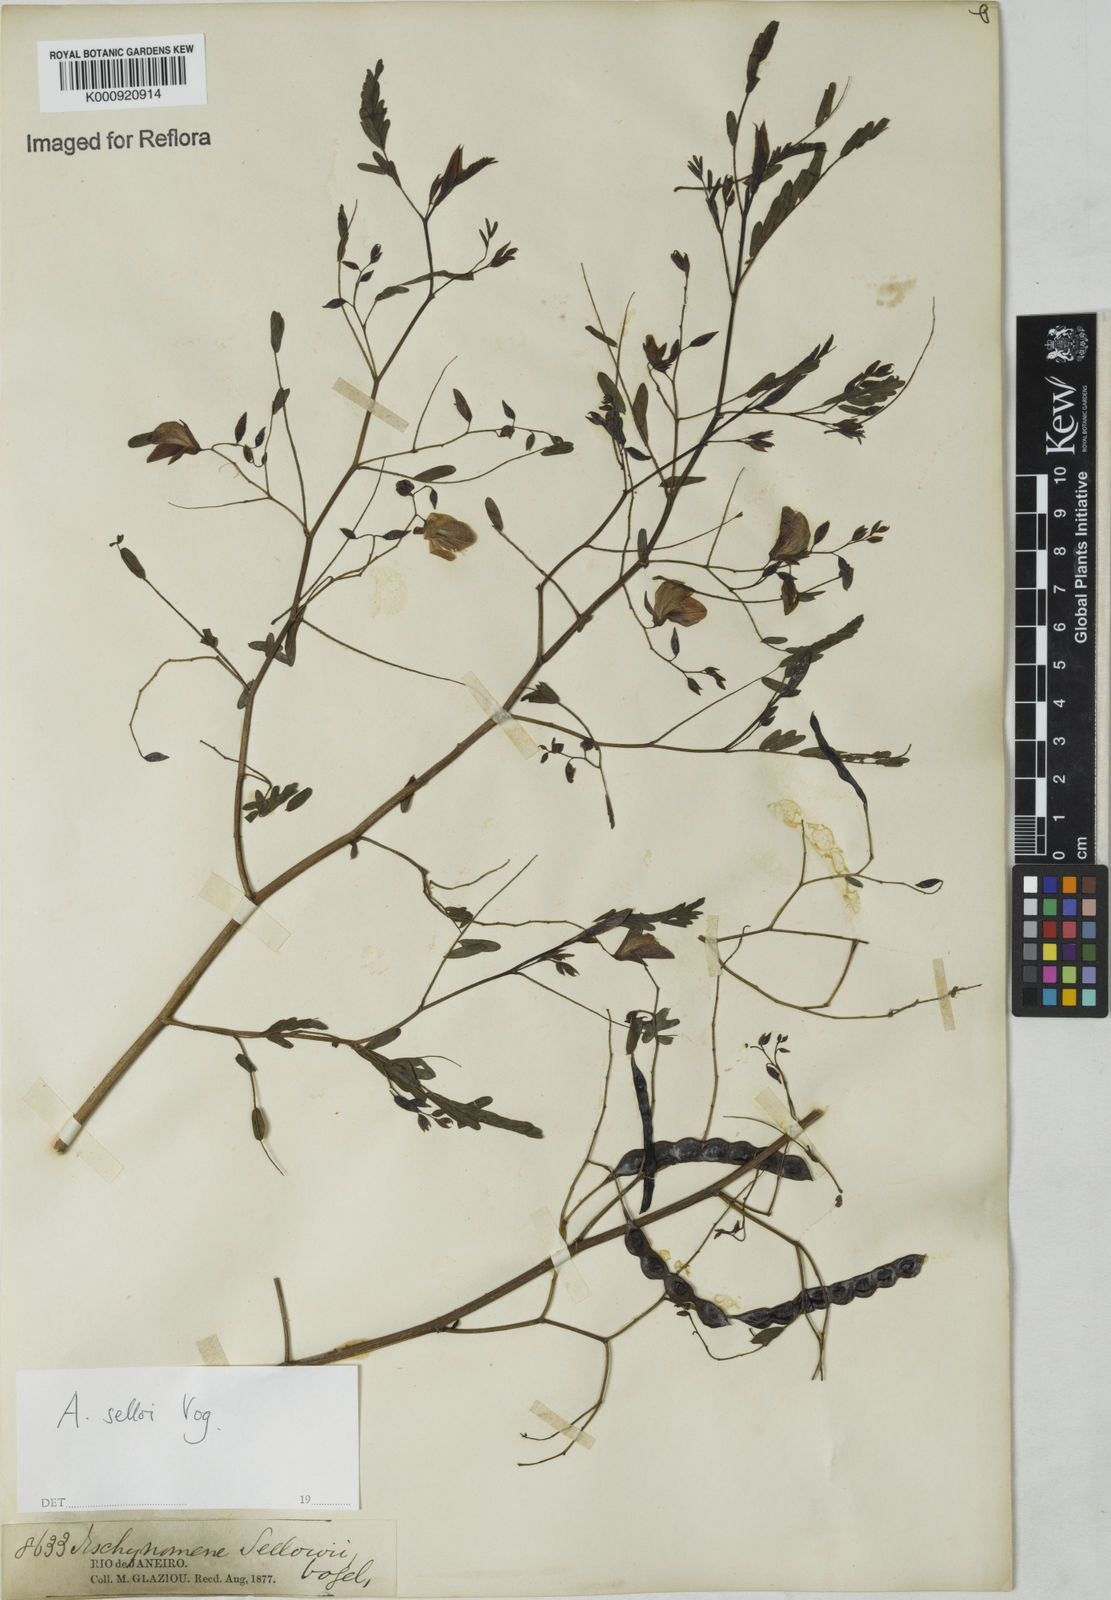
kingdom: Plantae
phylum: Tracheophyta
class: Magnoliopsida
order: Fabales
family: Fabaceae
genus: Centrosema
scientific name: Centrosema
